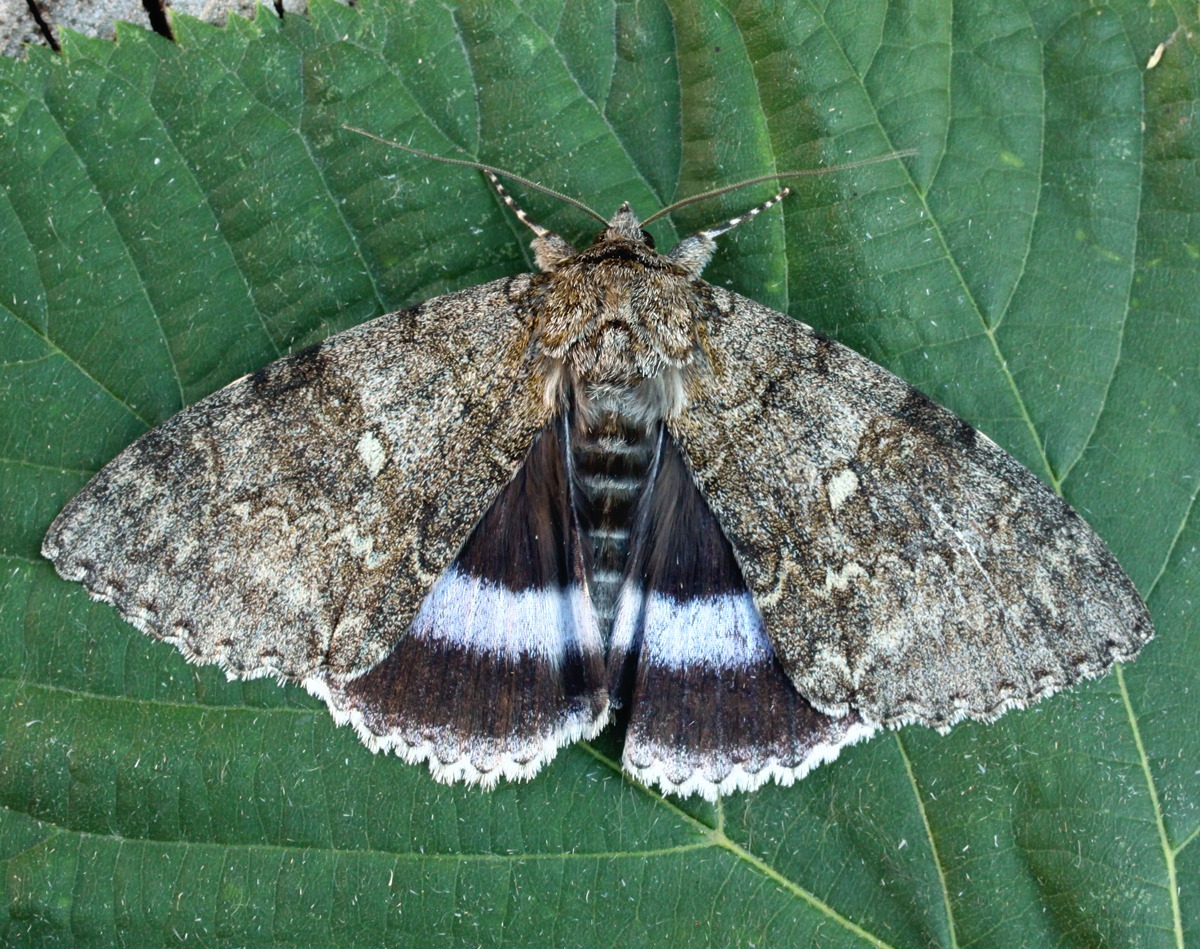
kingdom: Animalia
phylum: Arthropoda
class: Insecta
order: Lepidoptera
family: Erebidae
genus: Catocala
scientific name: Catocala fraxini
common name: Blåt ordensbånd
